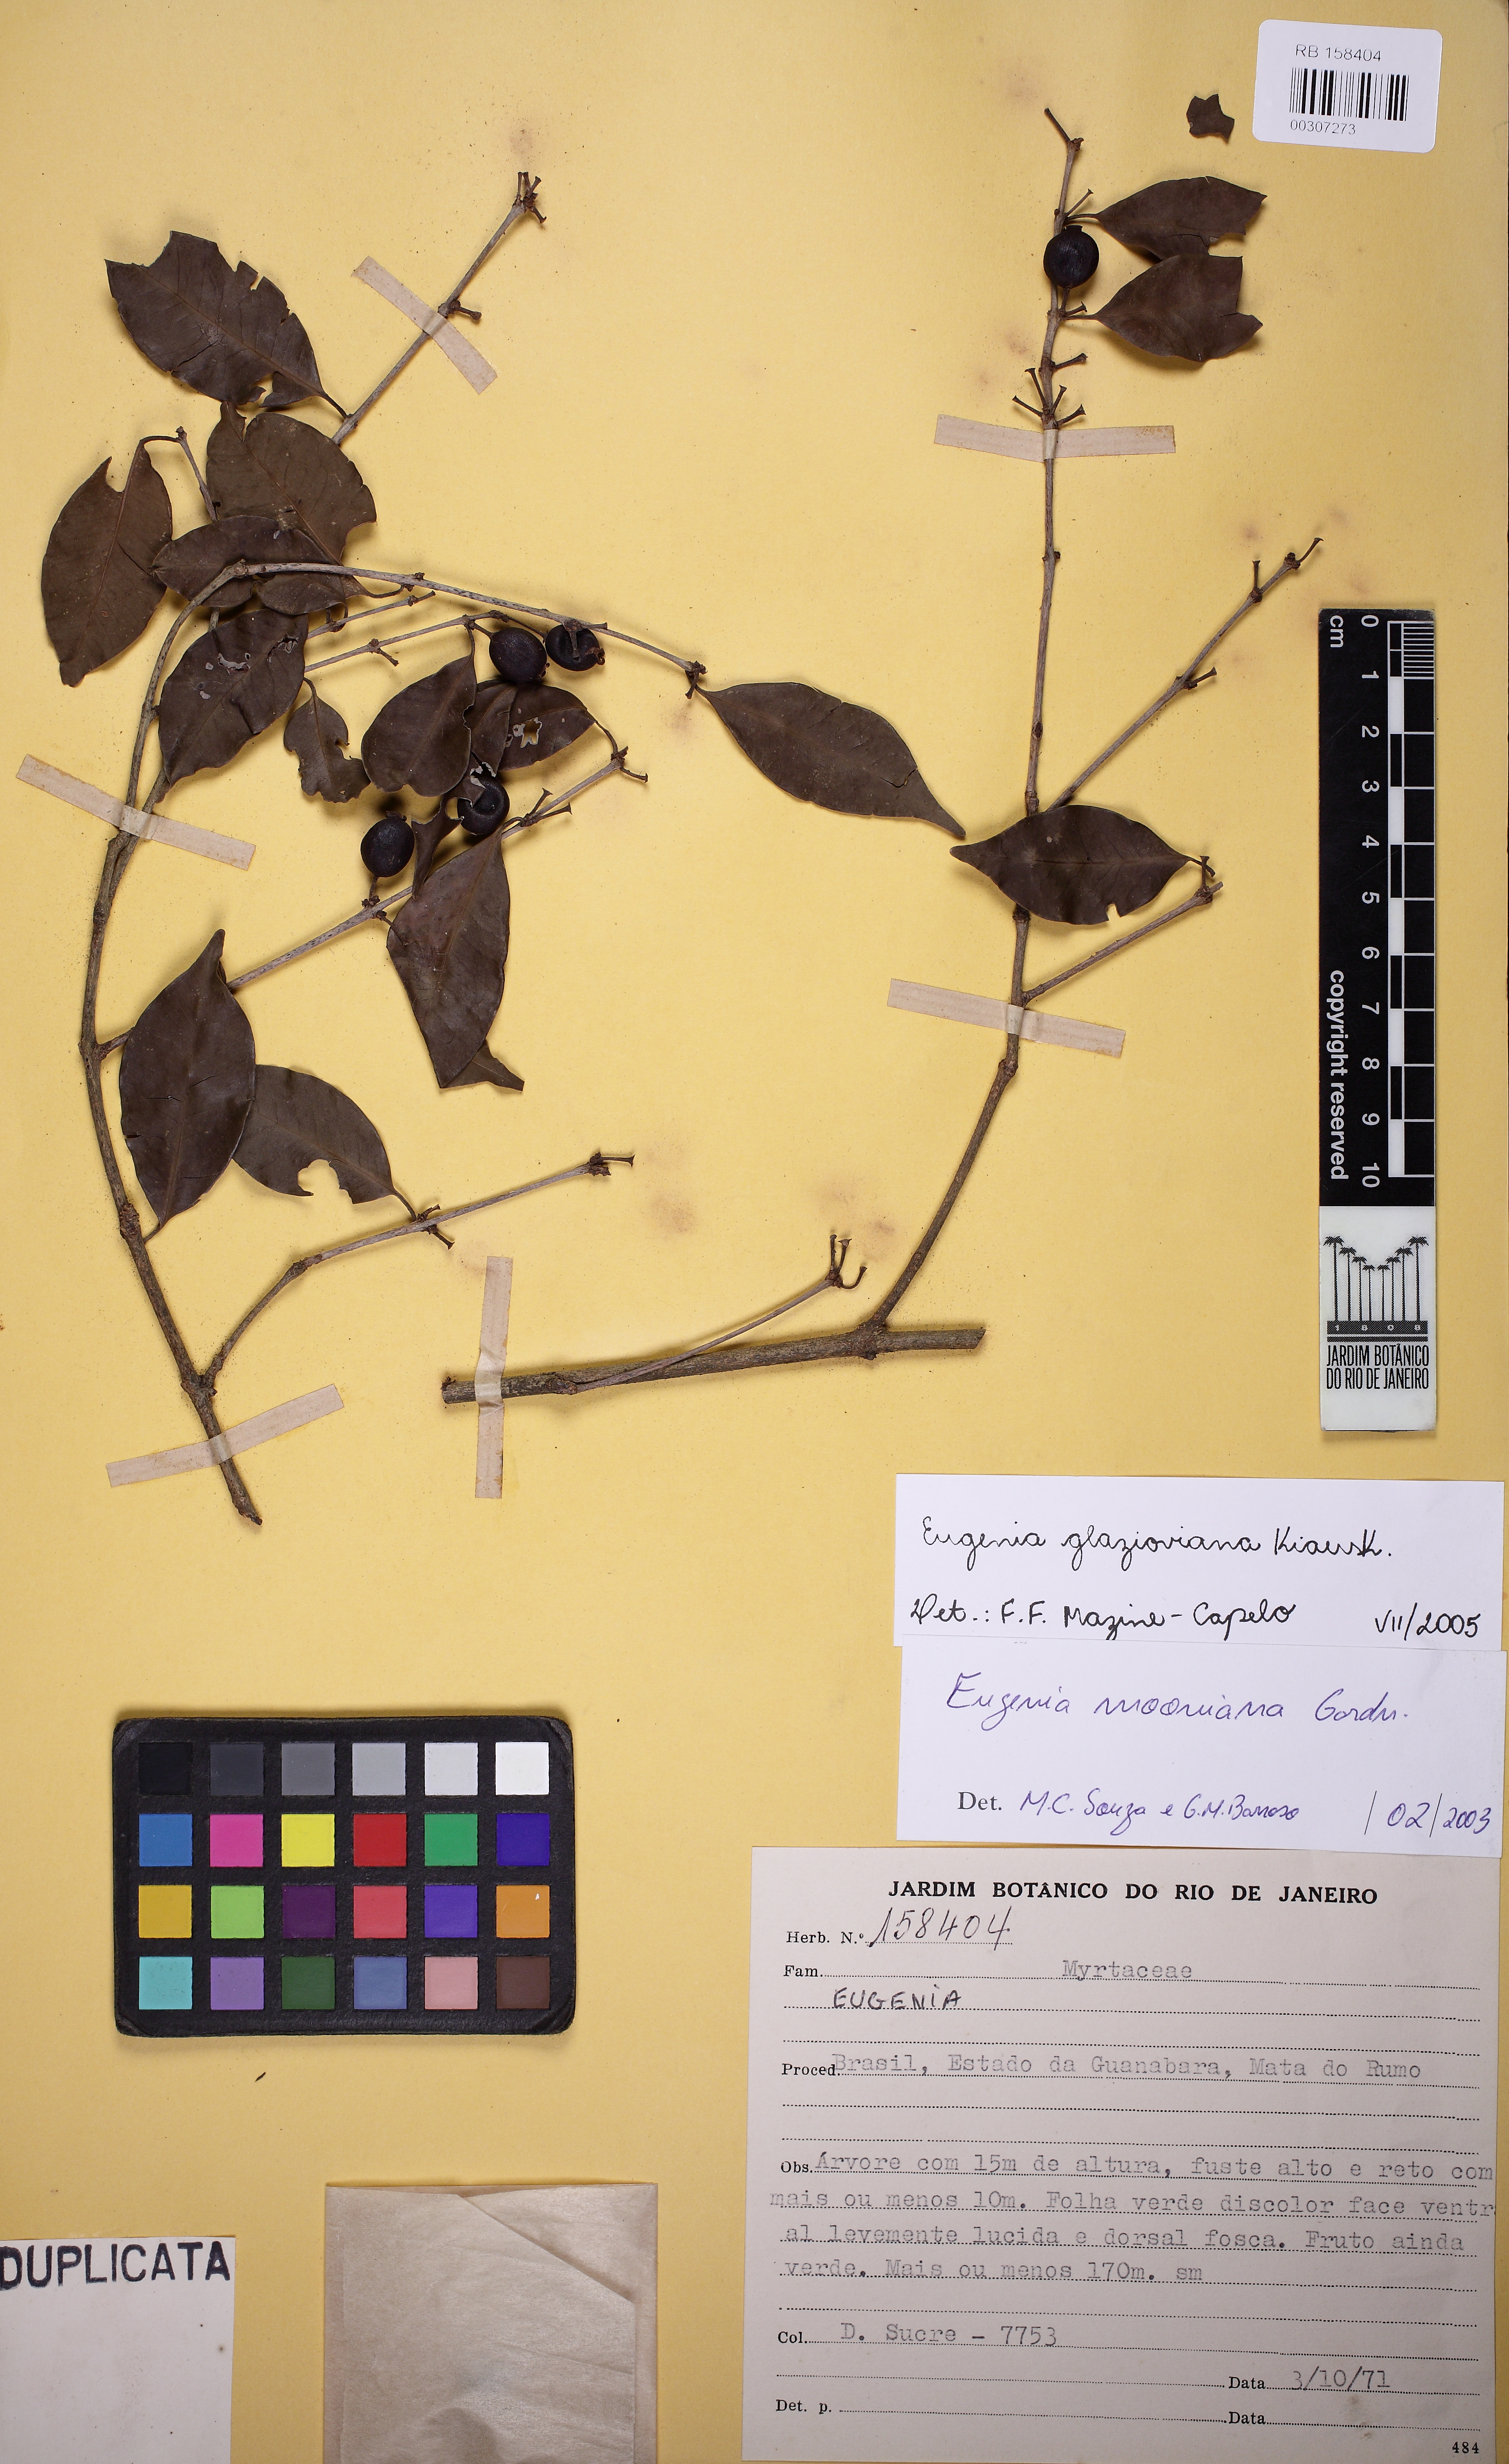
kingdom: Plantae
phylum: Tracheophyta
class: Magnoliopsida
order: Myrtales
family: Myrtaceae
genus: Eugenia
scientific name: Eugenia francavilleana
